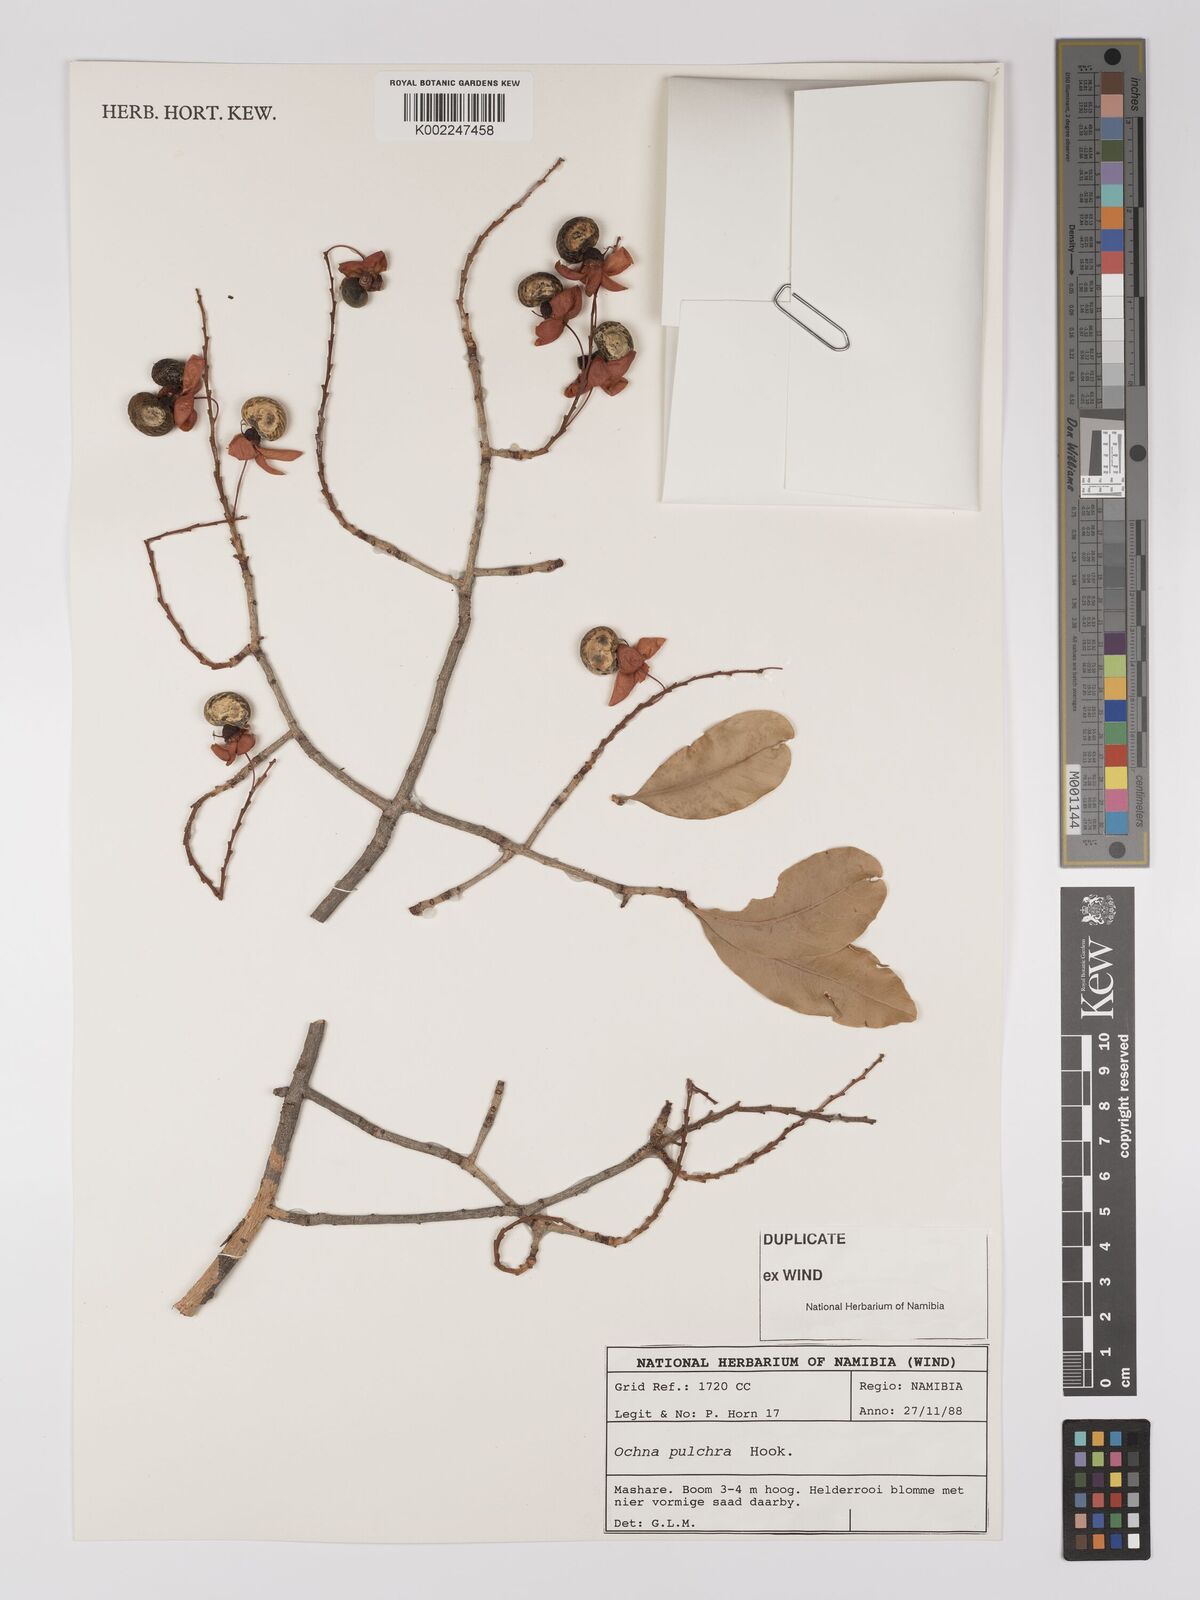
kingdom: Plantae
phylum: Tracheophyta
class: Magnoliopsida
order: Malpighiales
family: Ochnaceae
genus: Ochna
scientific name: Ochna pulchra
